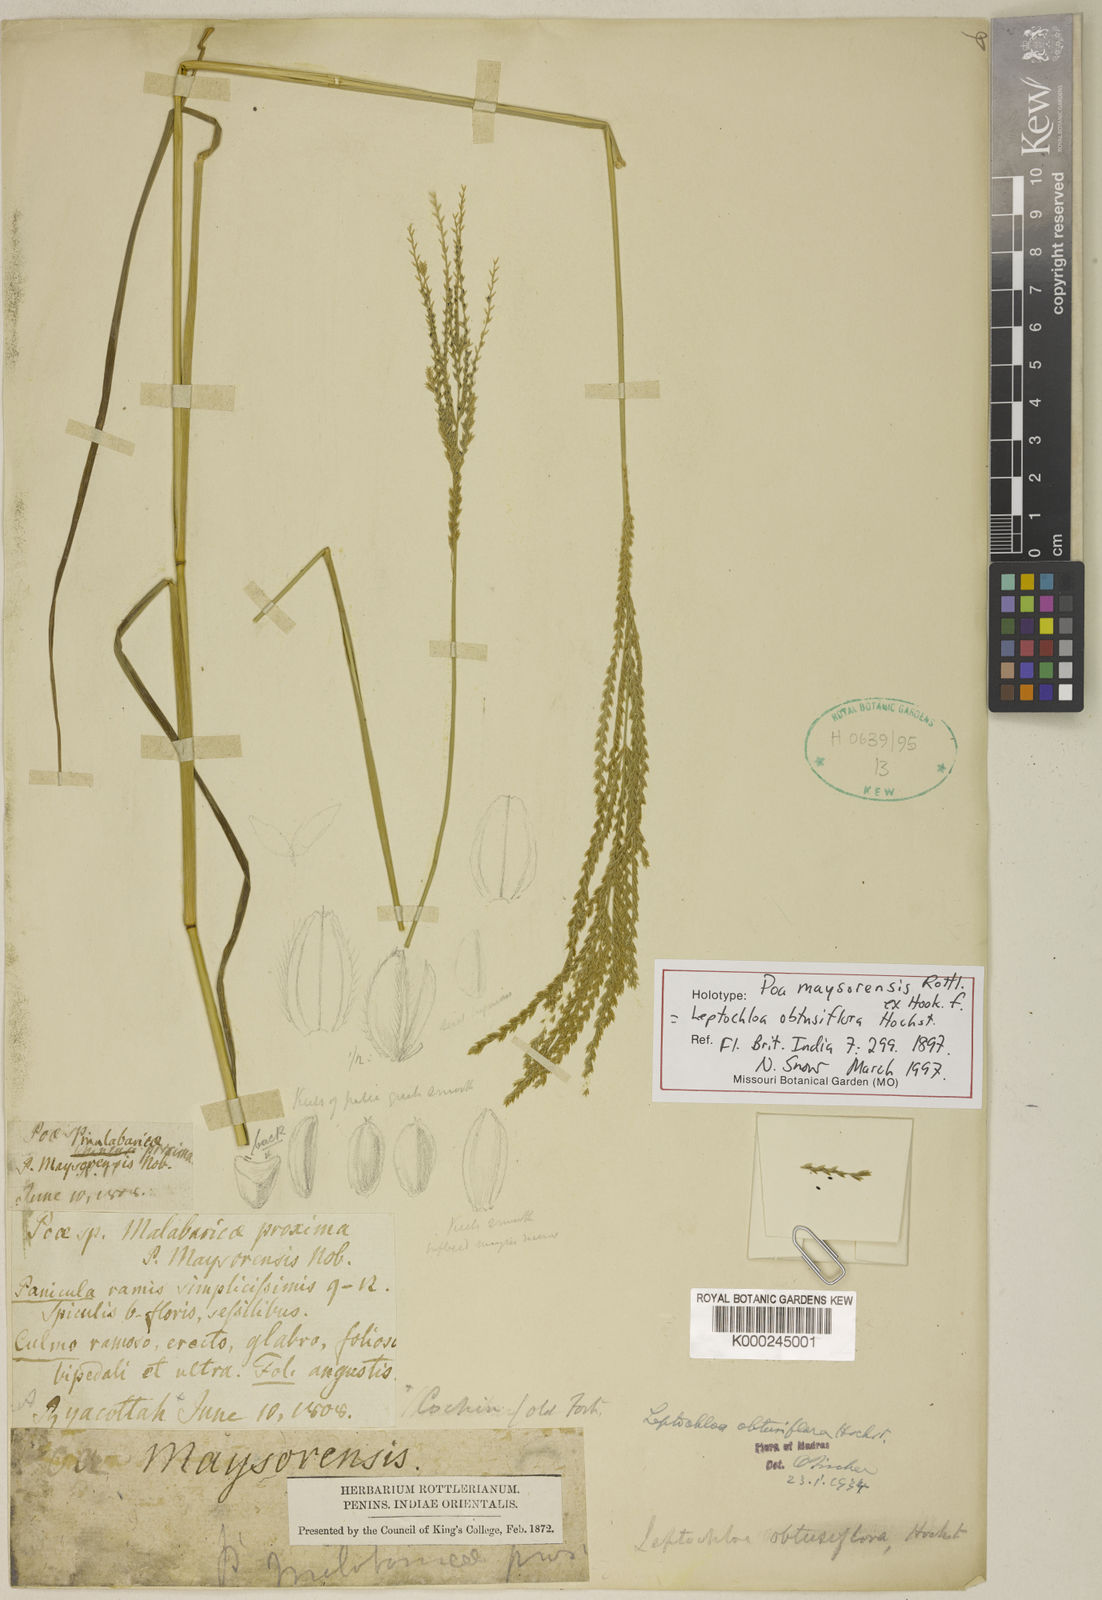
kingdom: Plantae
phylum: Tracheophyta
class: Liliopsida
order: Poales
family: Poaceae
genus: Disakisperma
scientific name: Disakisperma obtusiflorum
